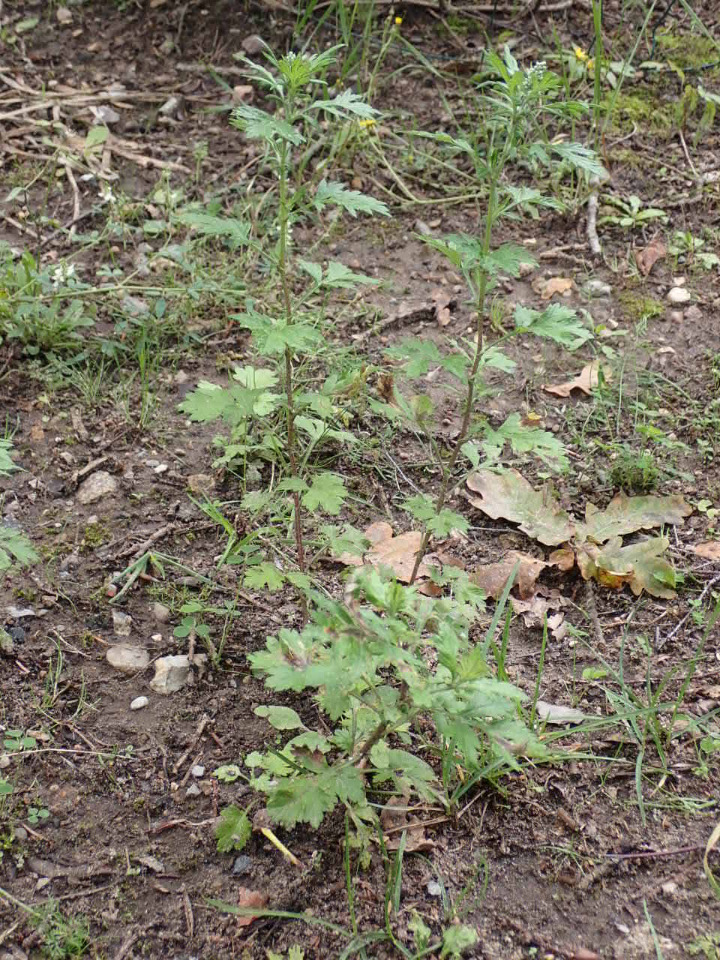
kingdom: Plantae
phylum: Tracheophyta
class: Magnoliopsida
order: Asterales
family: Asteraceae
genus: Artemisia
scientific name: Artemisia vulgaris
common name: Grå-bynke
